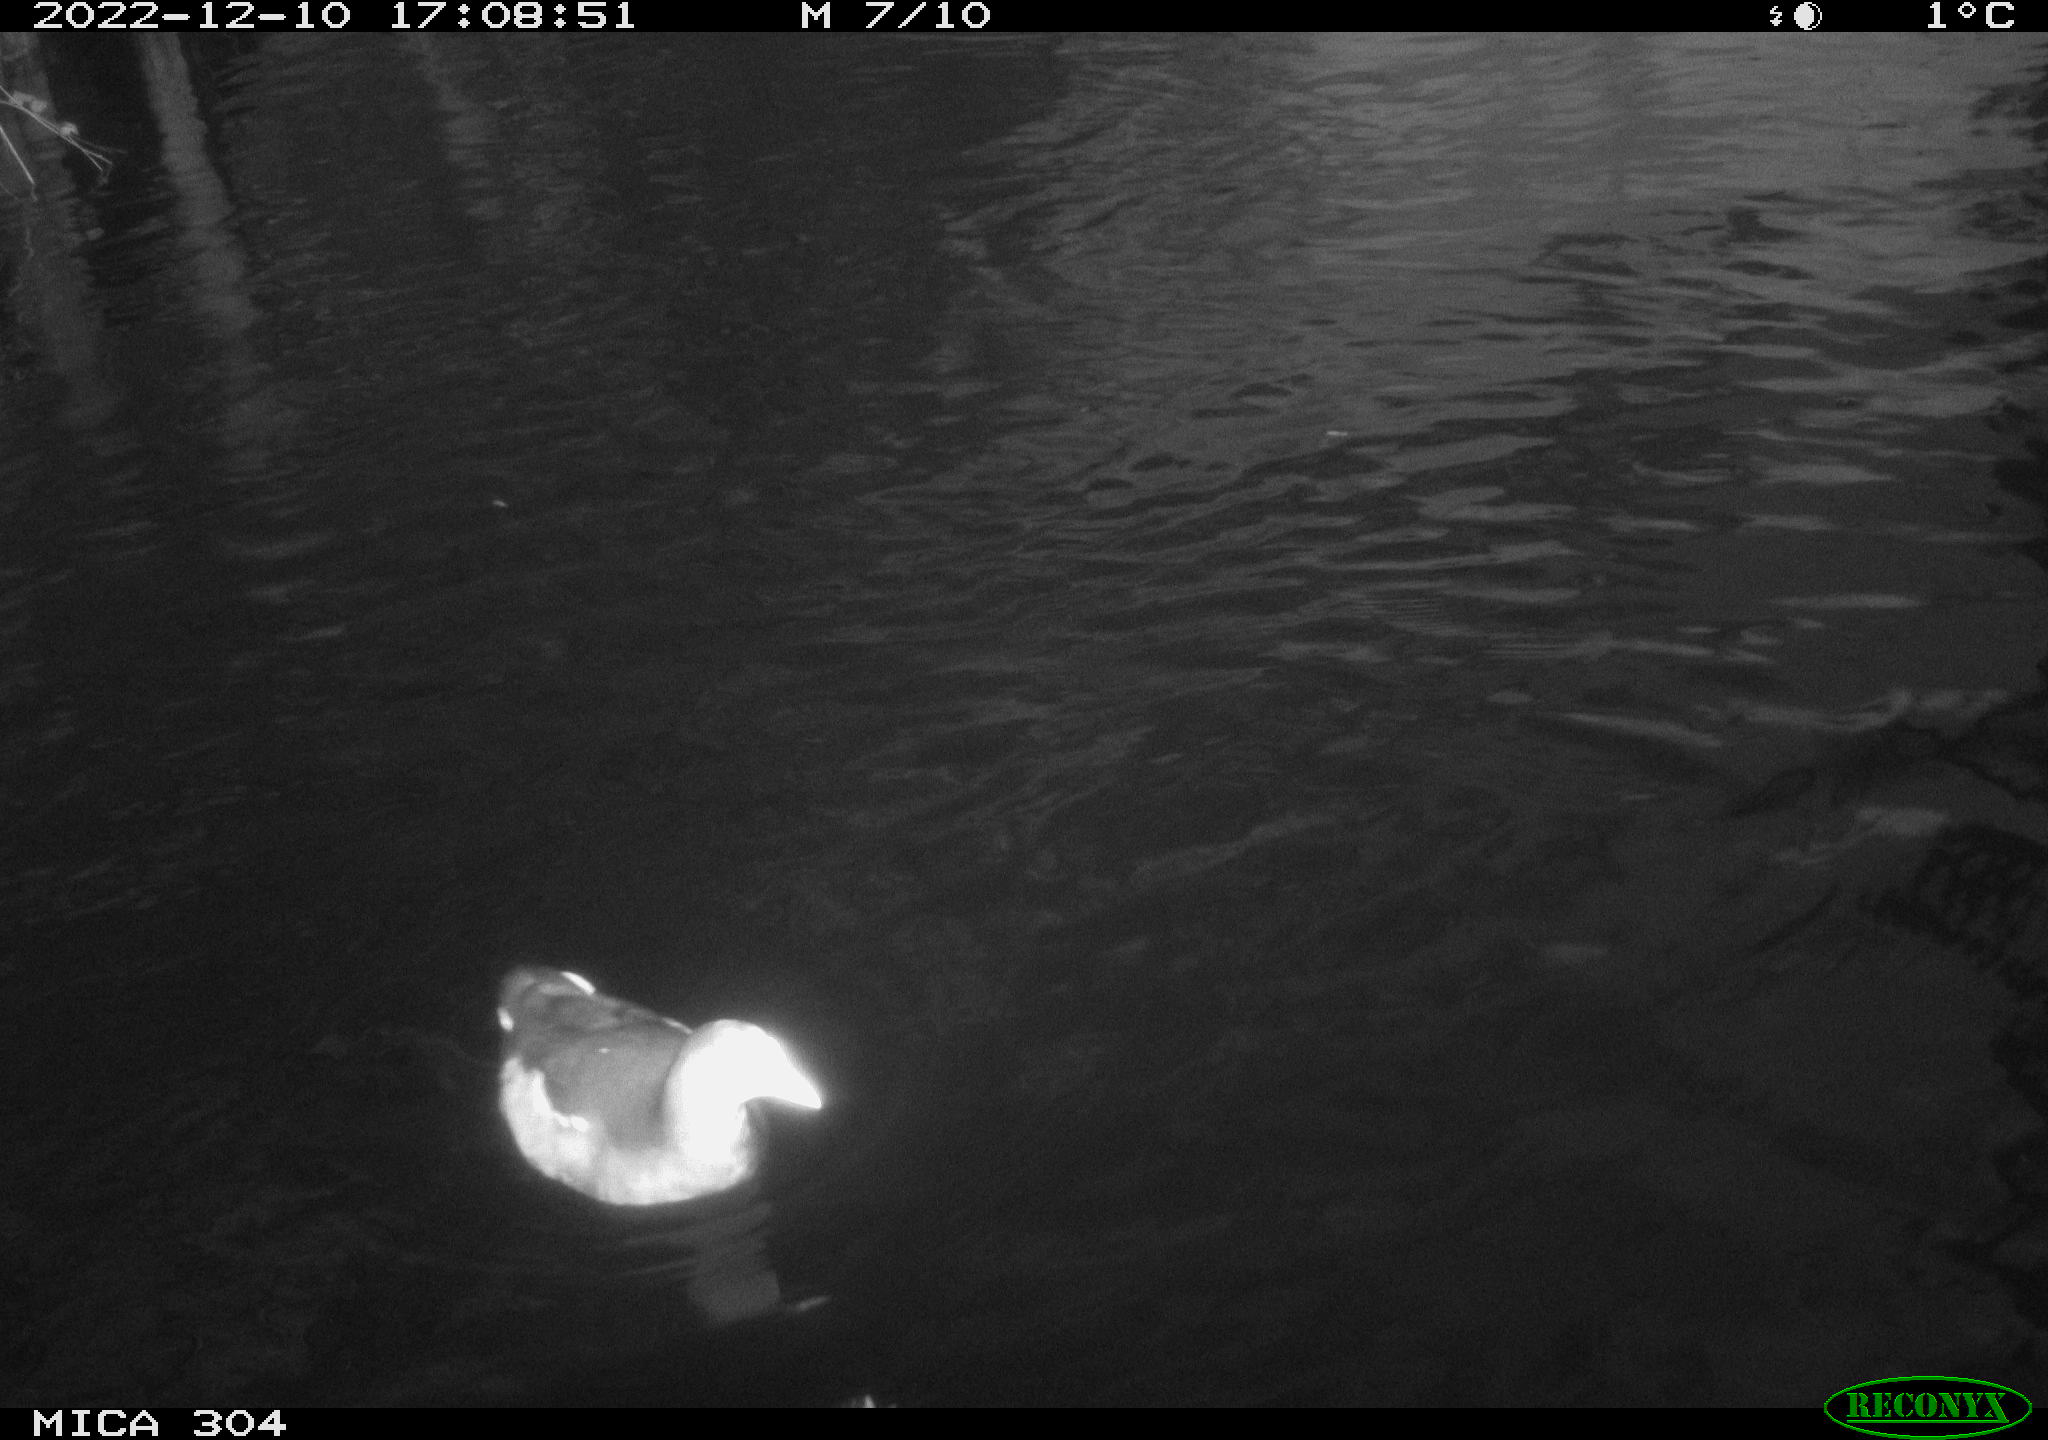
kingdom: Animalia
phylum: Chordata
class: Aves
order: Gruiformes
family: Rallidae
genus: Gallinula
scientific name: Gallinula chloropus
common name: Common moorhen
